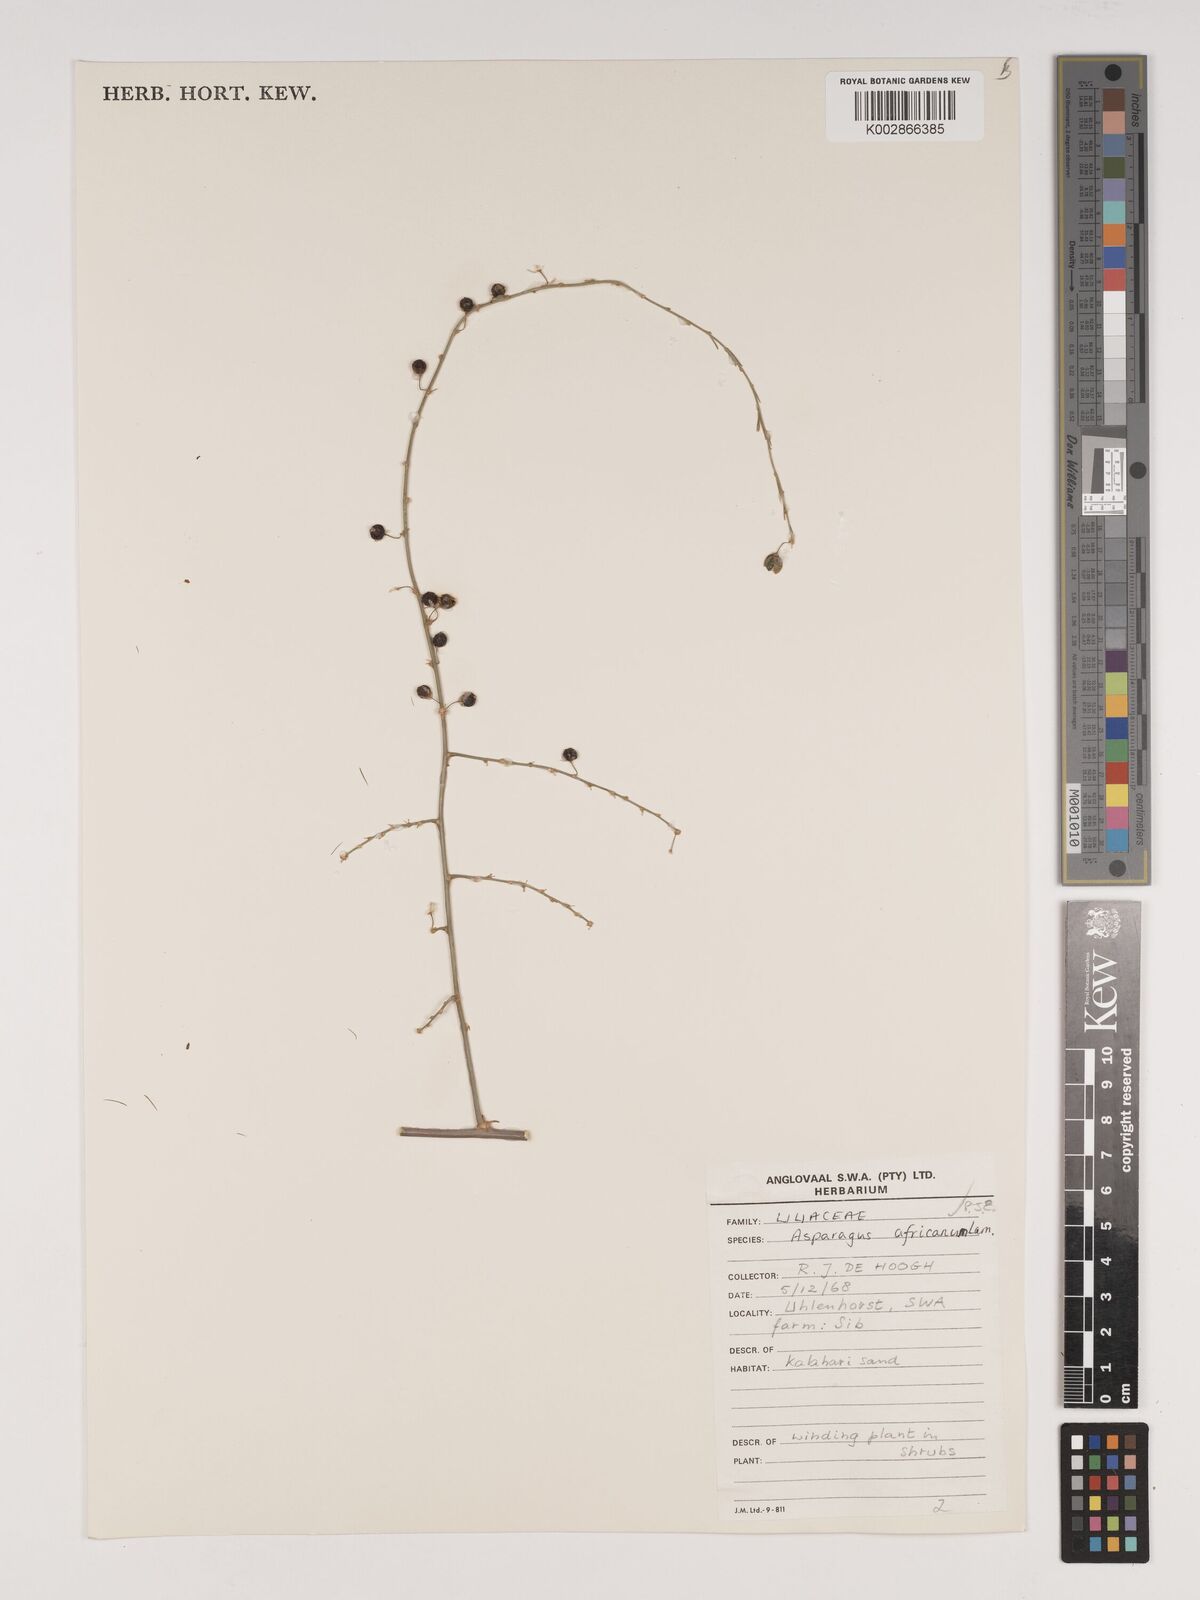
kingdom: Plantae
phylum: Tracheophyta
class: Liliopsida
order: Asparagales
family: Asparagaceae
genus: Asparagus
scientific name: Asparagus africanus
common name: Asparagus-fern
